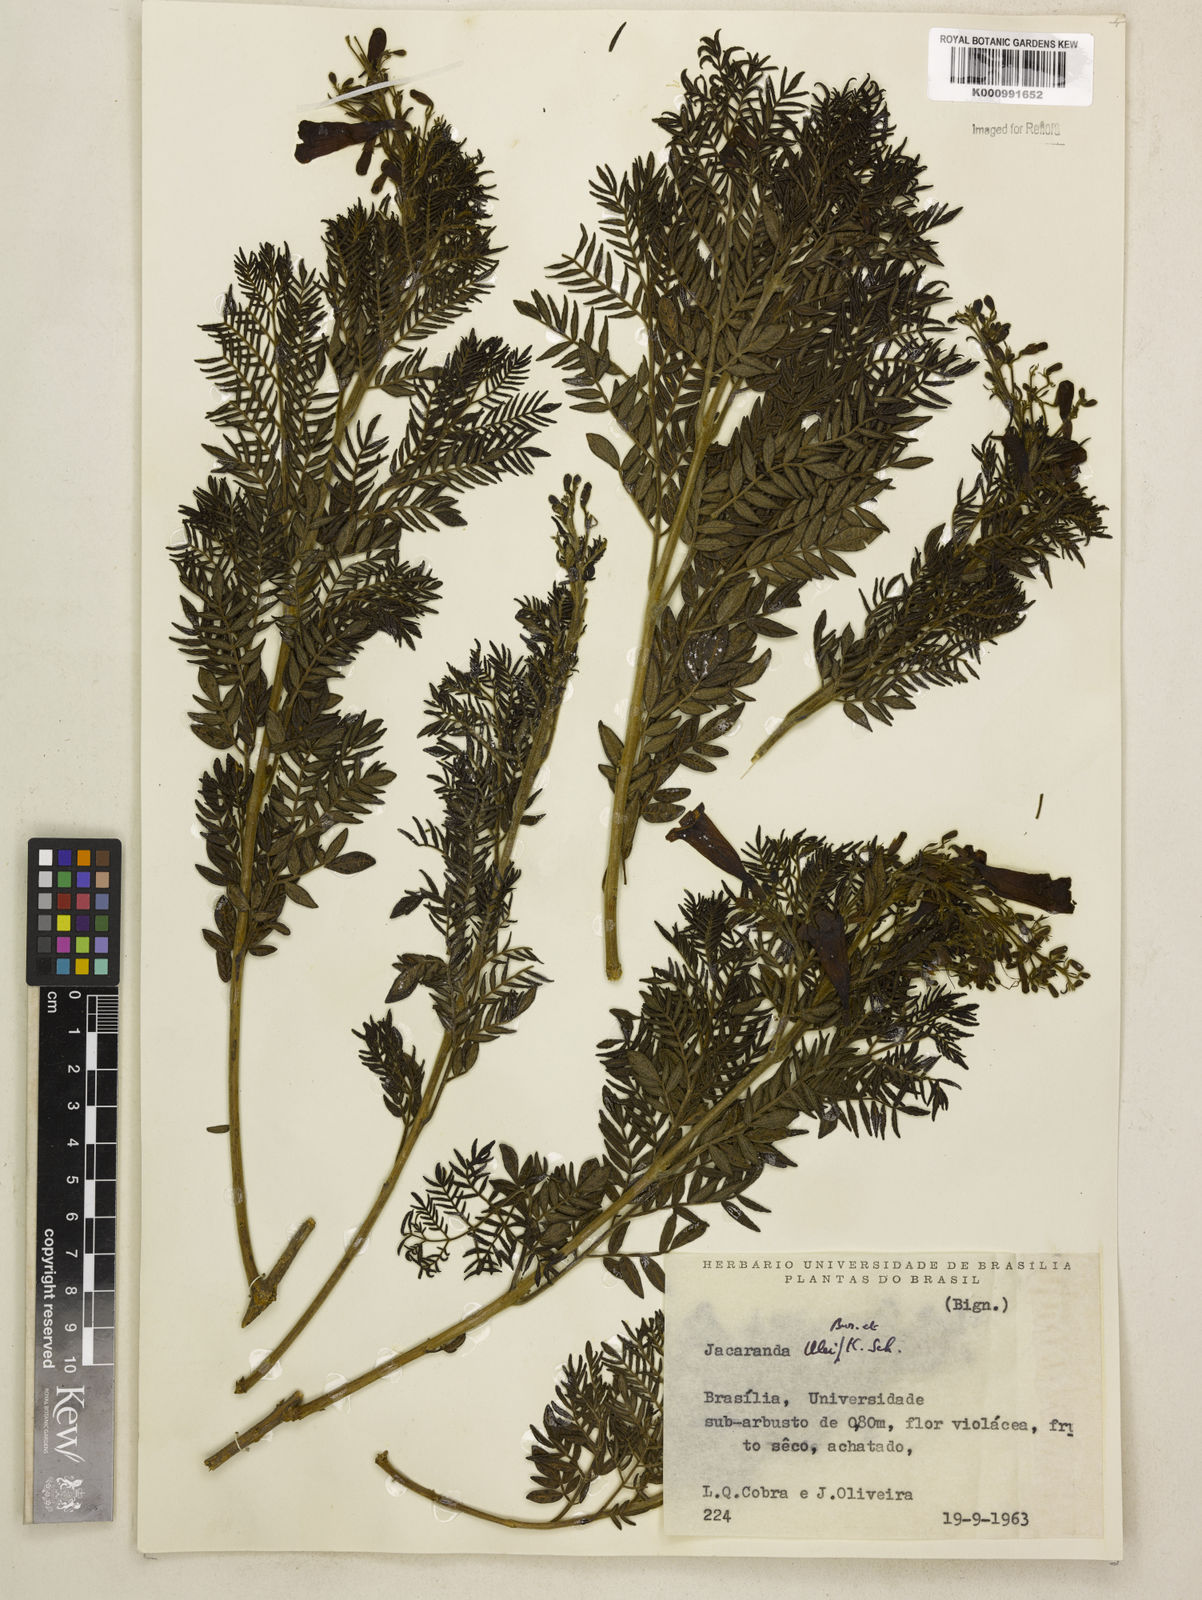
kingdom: Plantae
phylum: Tracheophyta
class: Magnoliopsida
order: Lamiales
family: Bignoniaceae
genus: Jacaranda
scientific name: Jacaranda ulei
